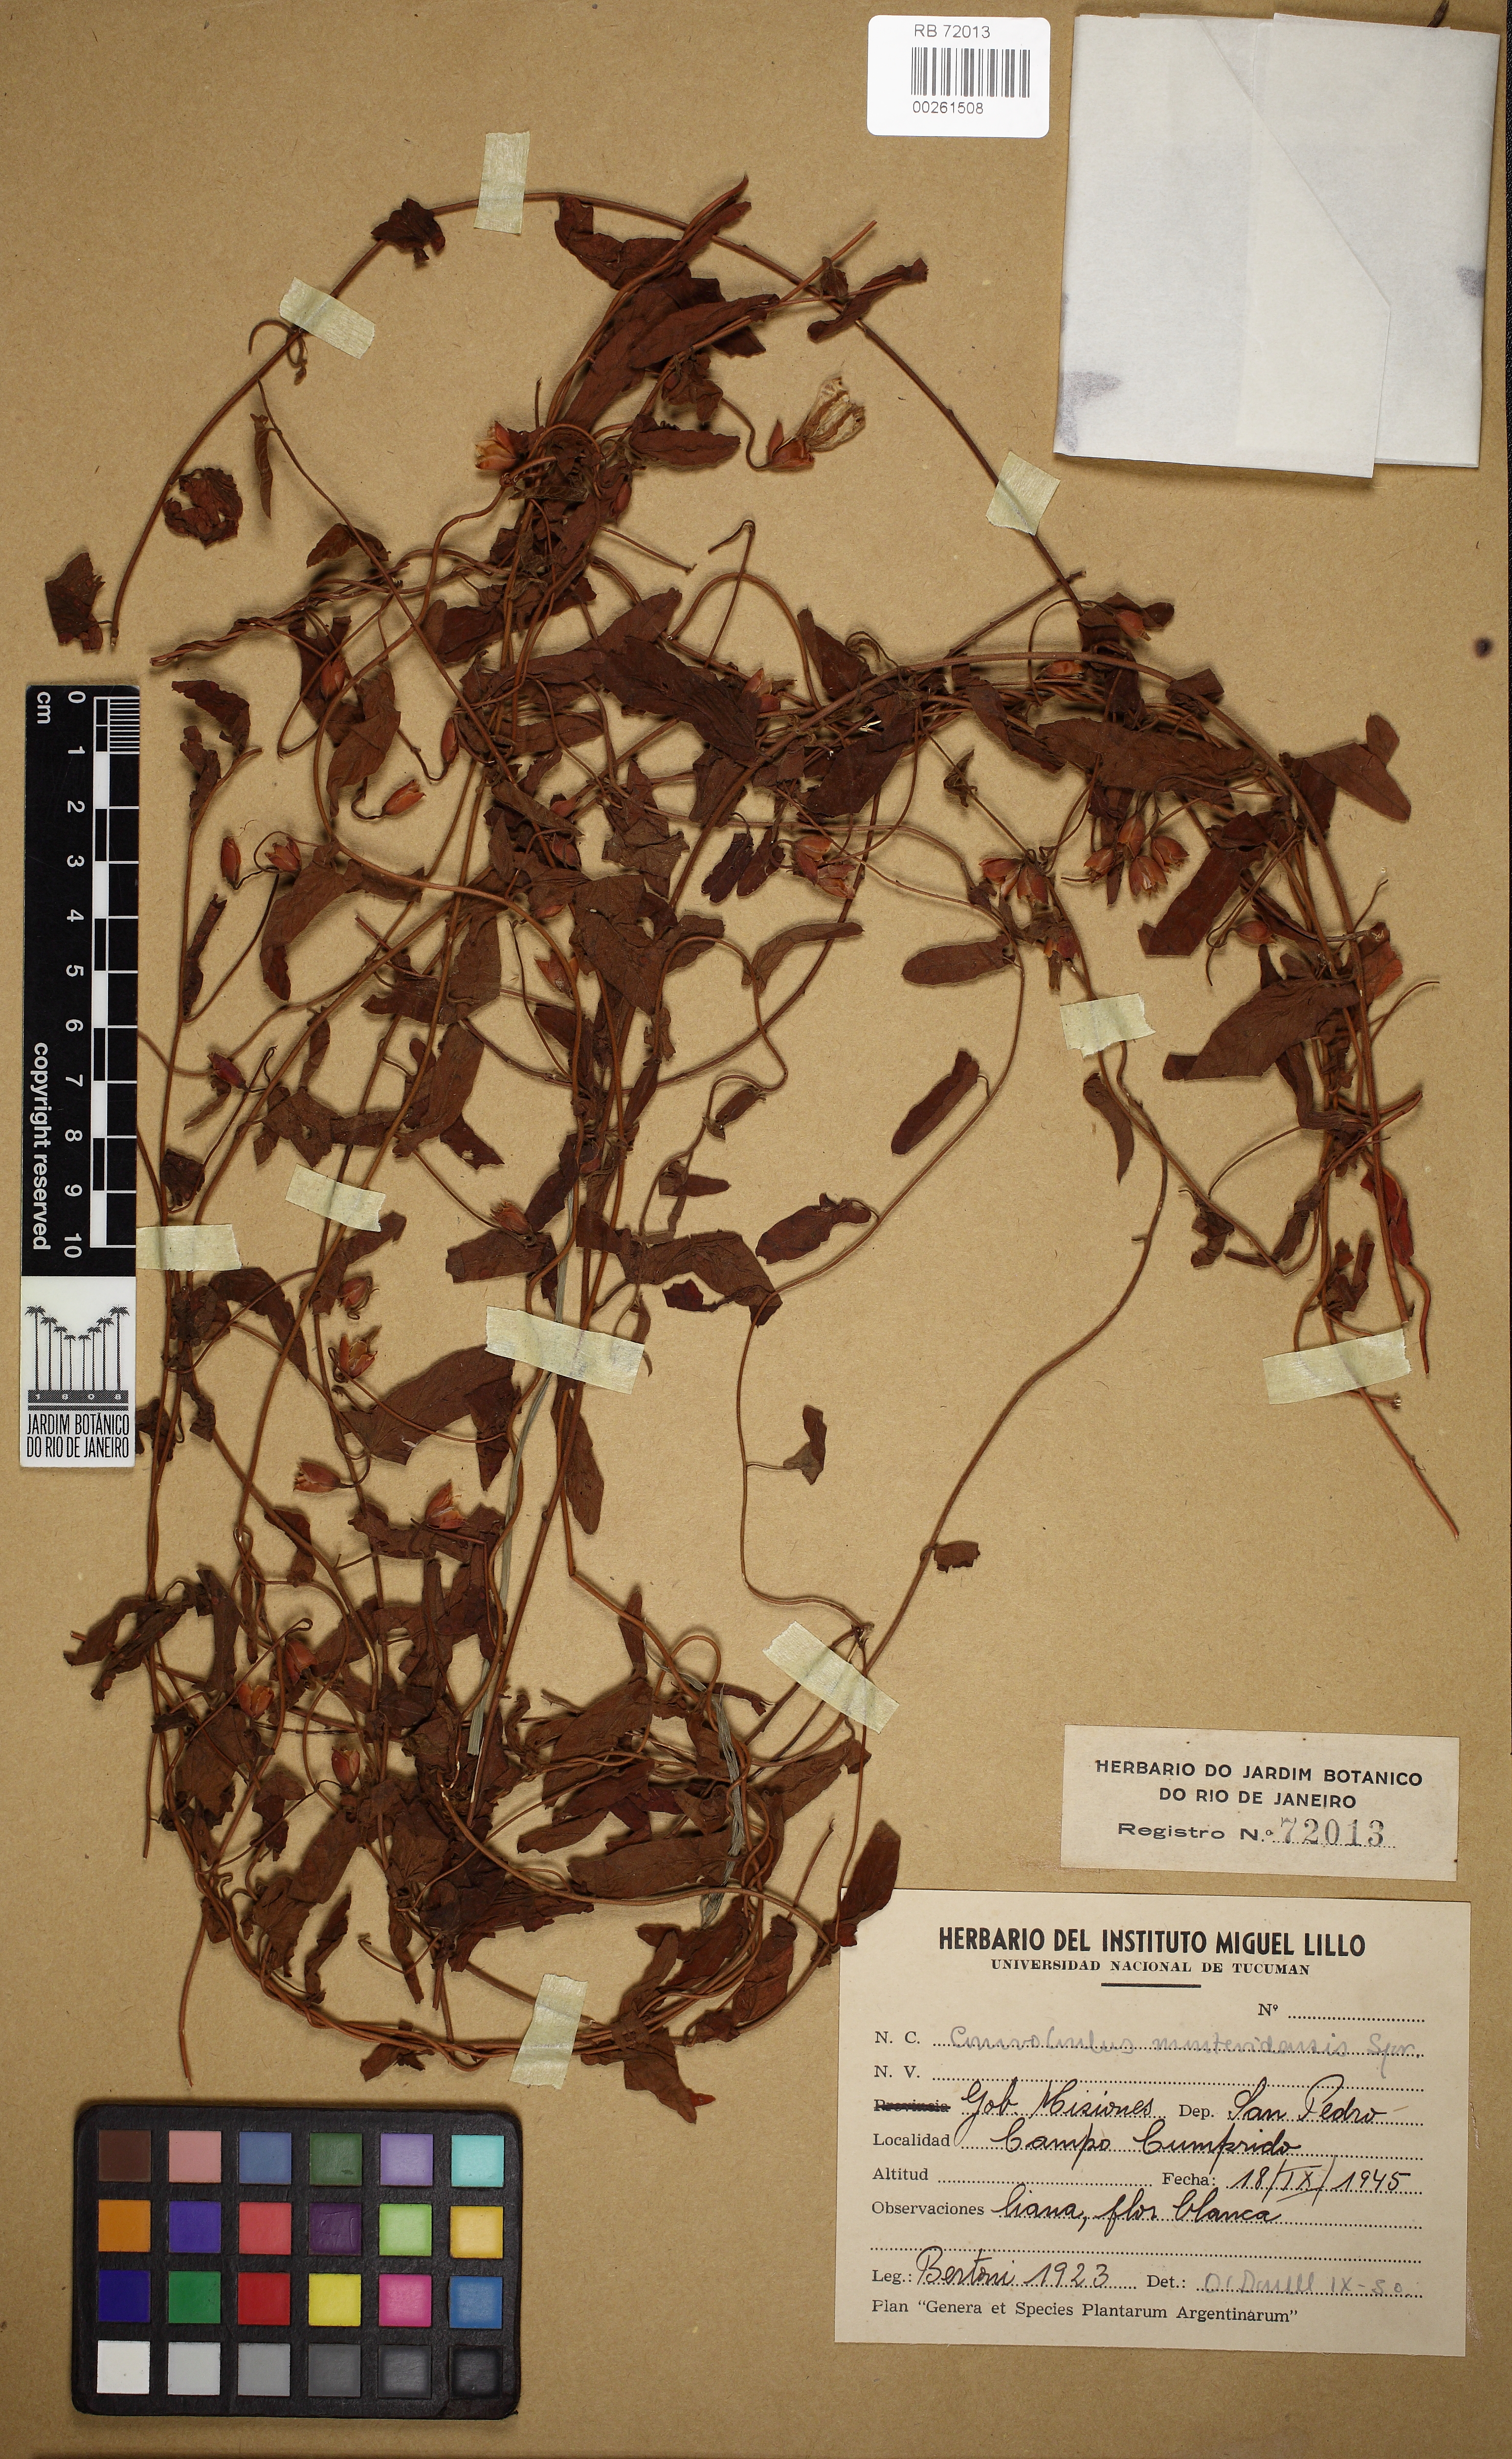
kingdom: Plantae
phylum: Tracheophyta
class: Magnoliopsida
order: Solanales
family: Convolvulaceae
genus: Convolvulus
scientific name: Convolvulus crenatifolius
